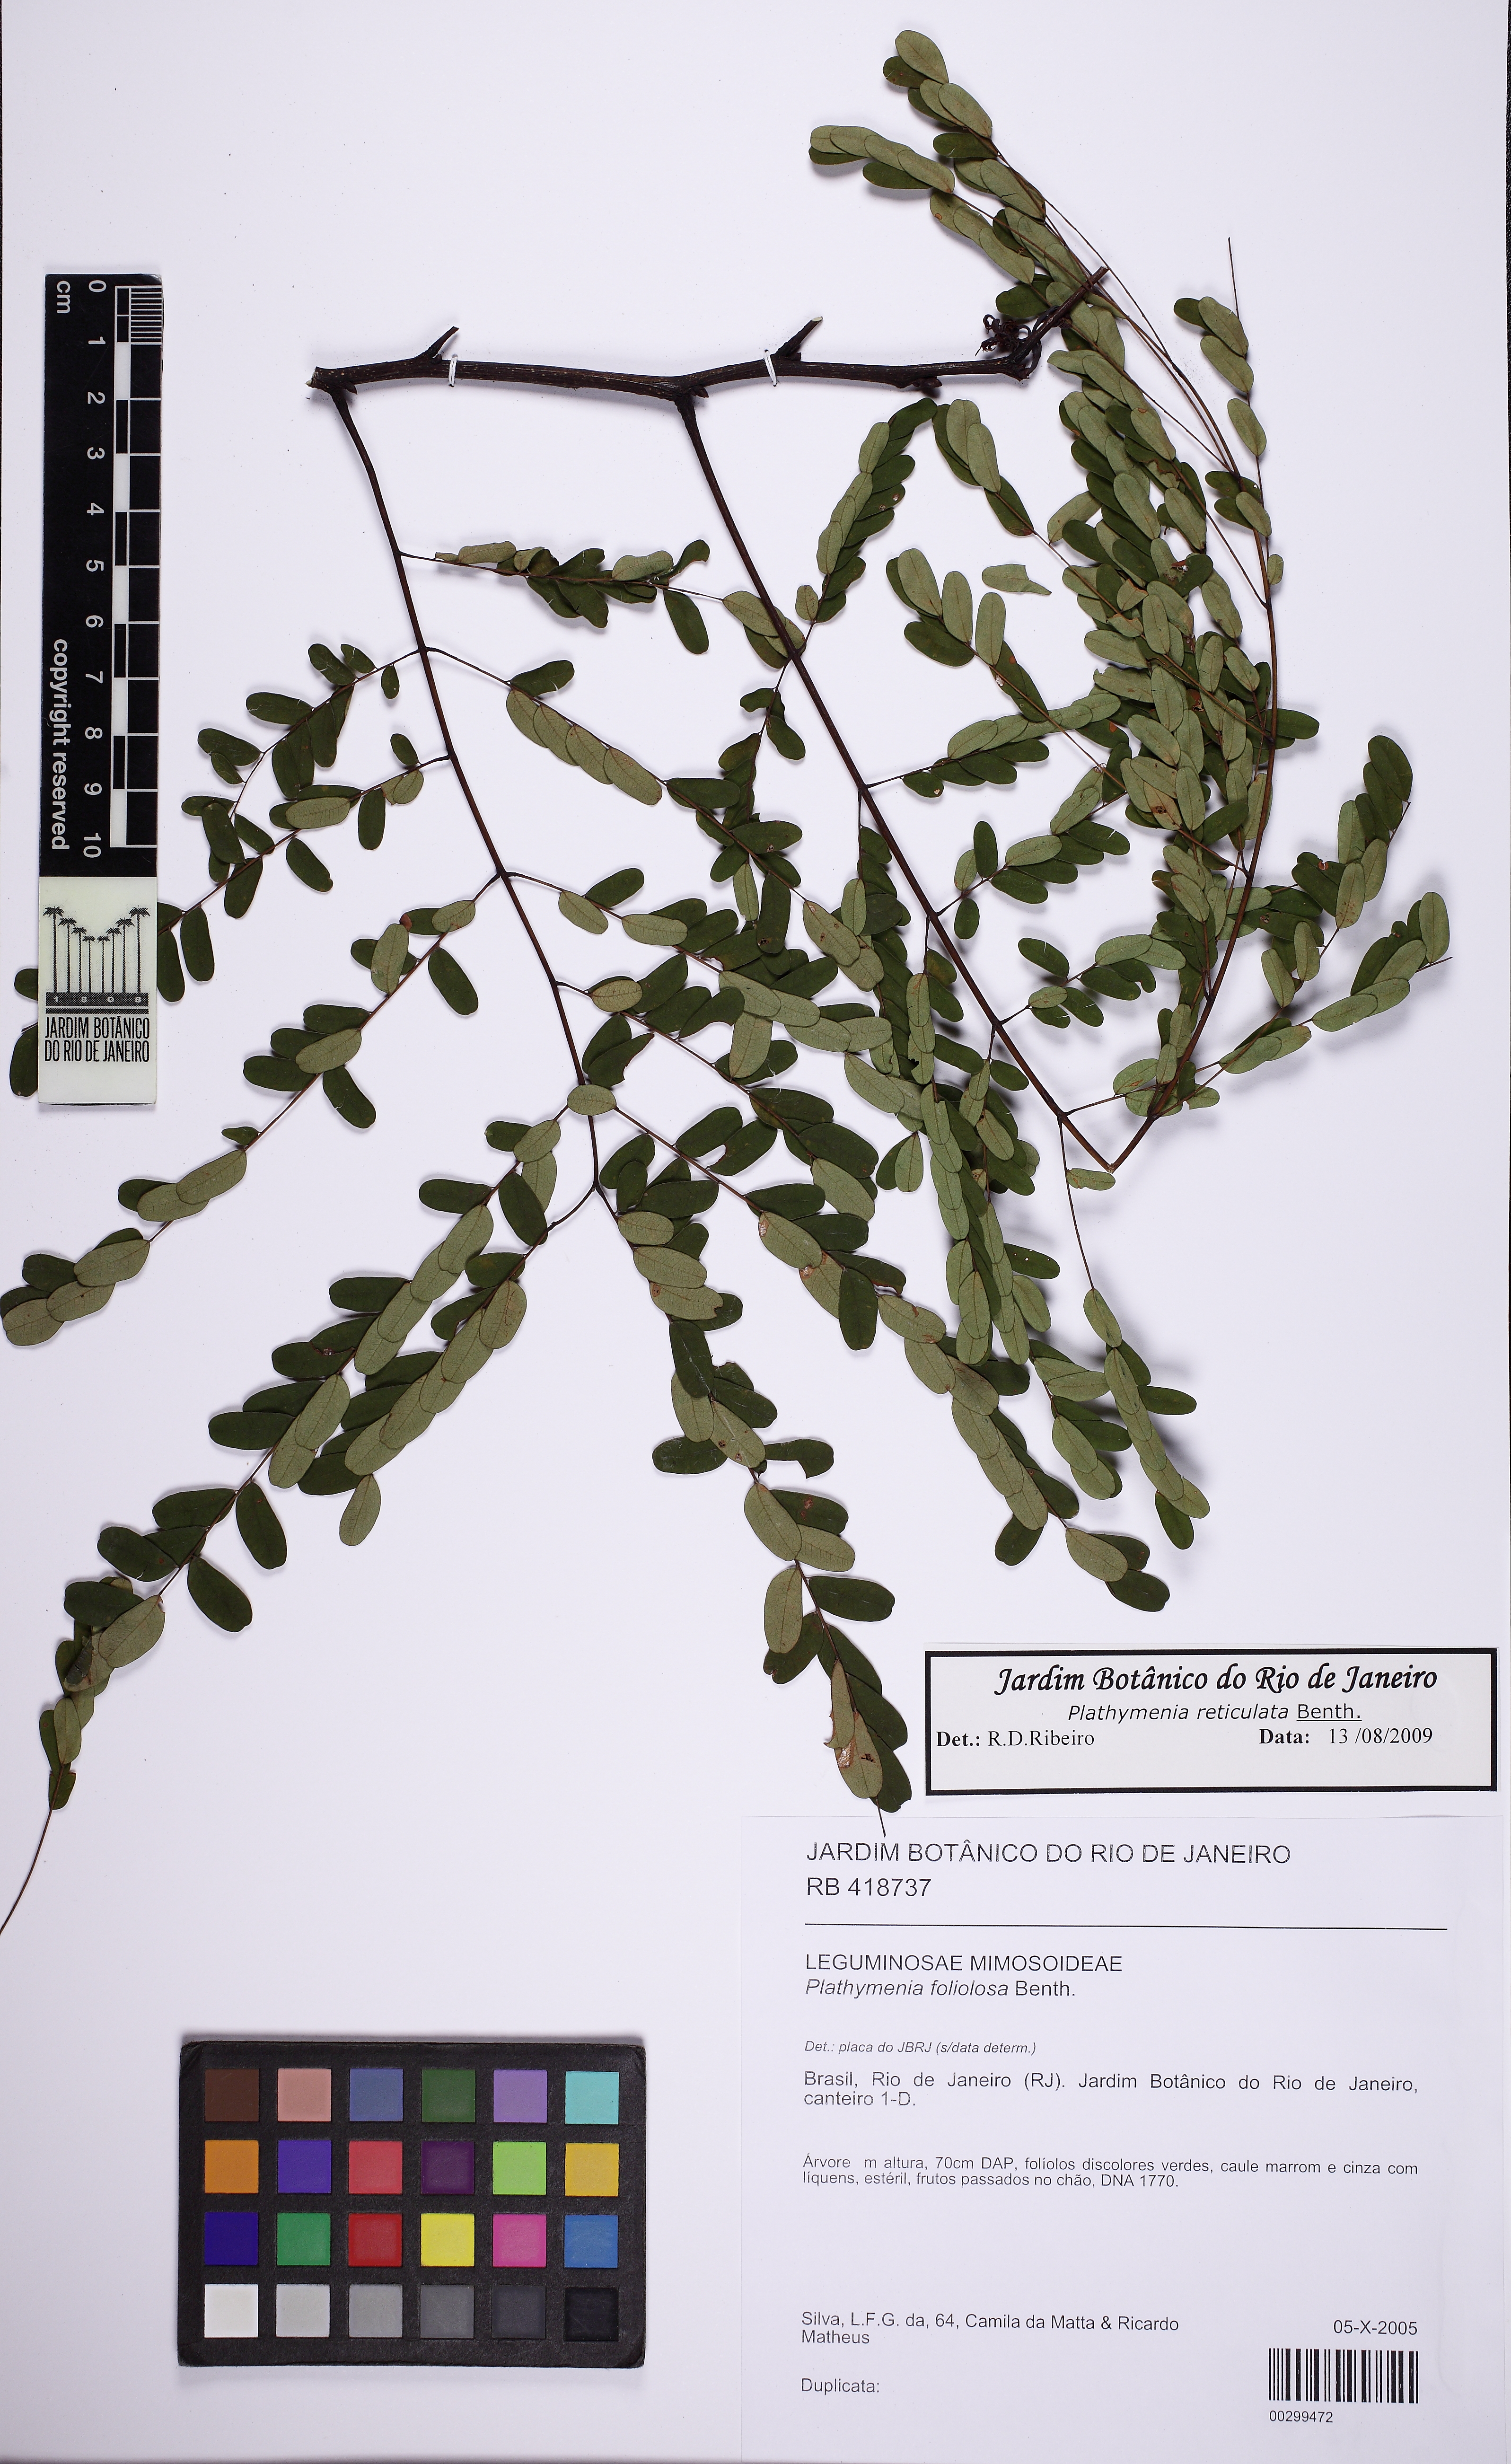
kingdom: Plantae
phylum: Tracheophyta
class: Magnoliopsida
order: Fabales
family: Fabaceae
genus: Plathymenia
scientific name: Plathymenia reticulata
